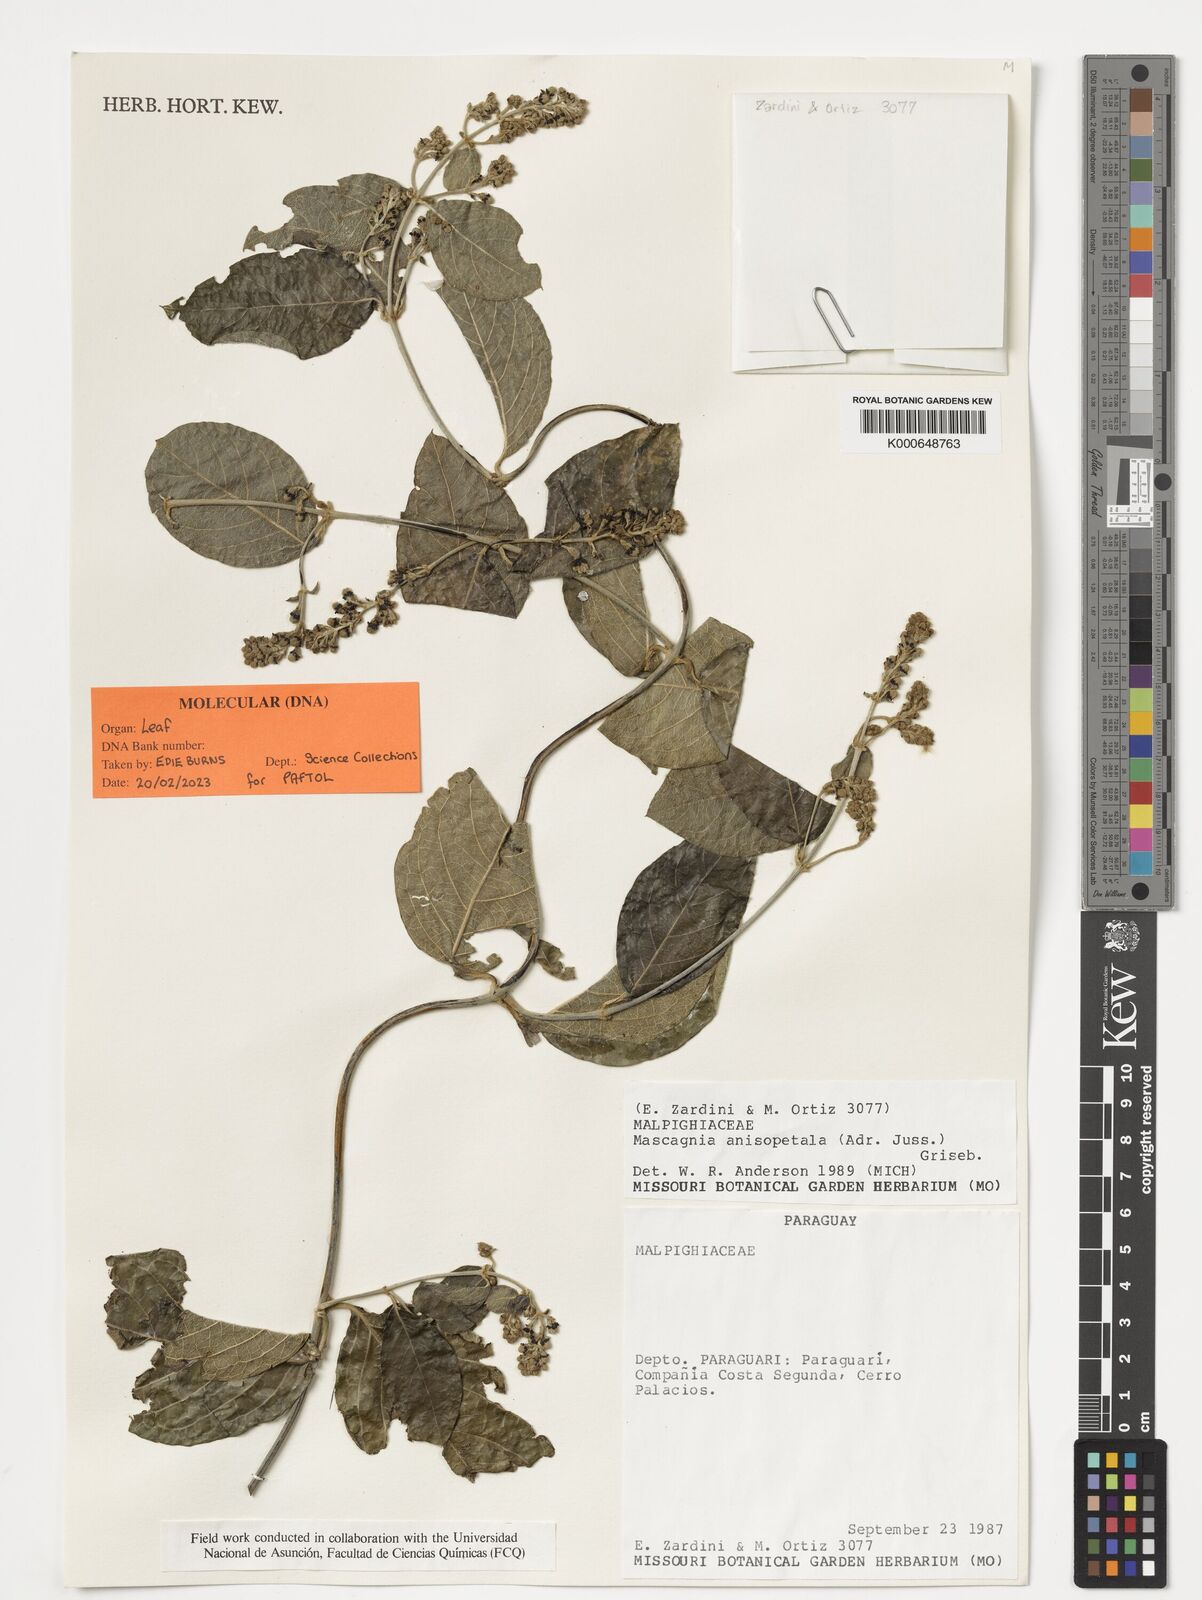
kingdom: Plantae
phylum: Tracheophyta
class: Magnoliopsida
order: Malpighiales
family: Malpighiaceae
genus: Alicia
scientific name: Alicia anisopetala
